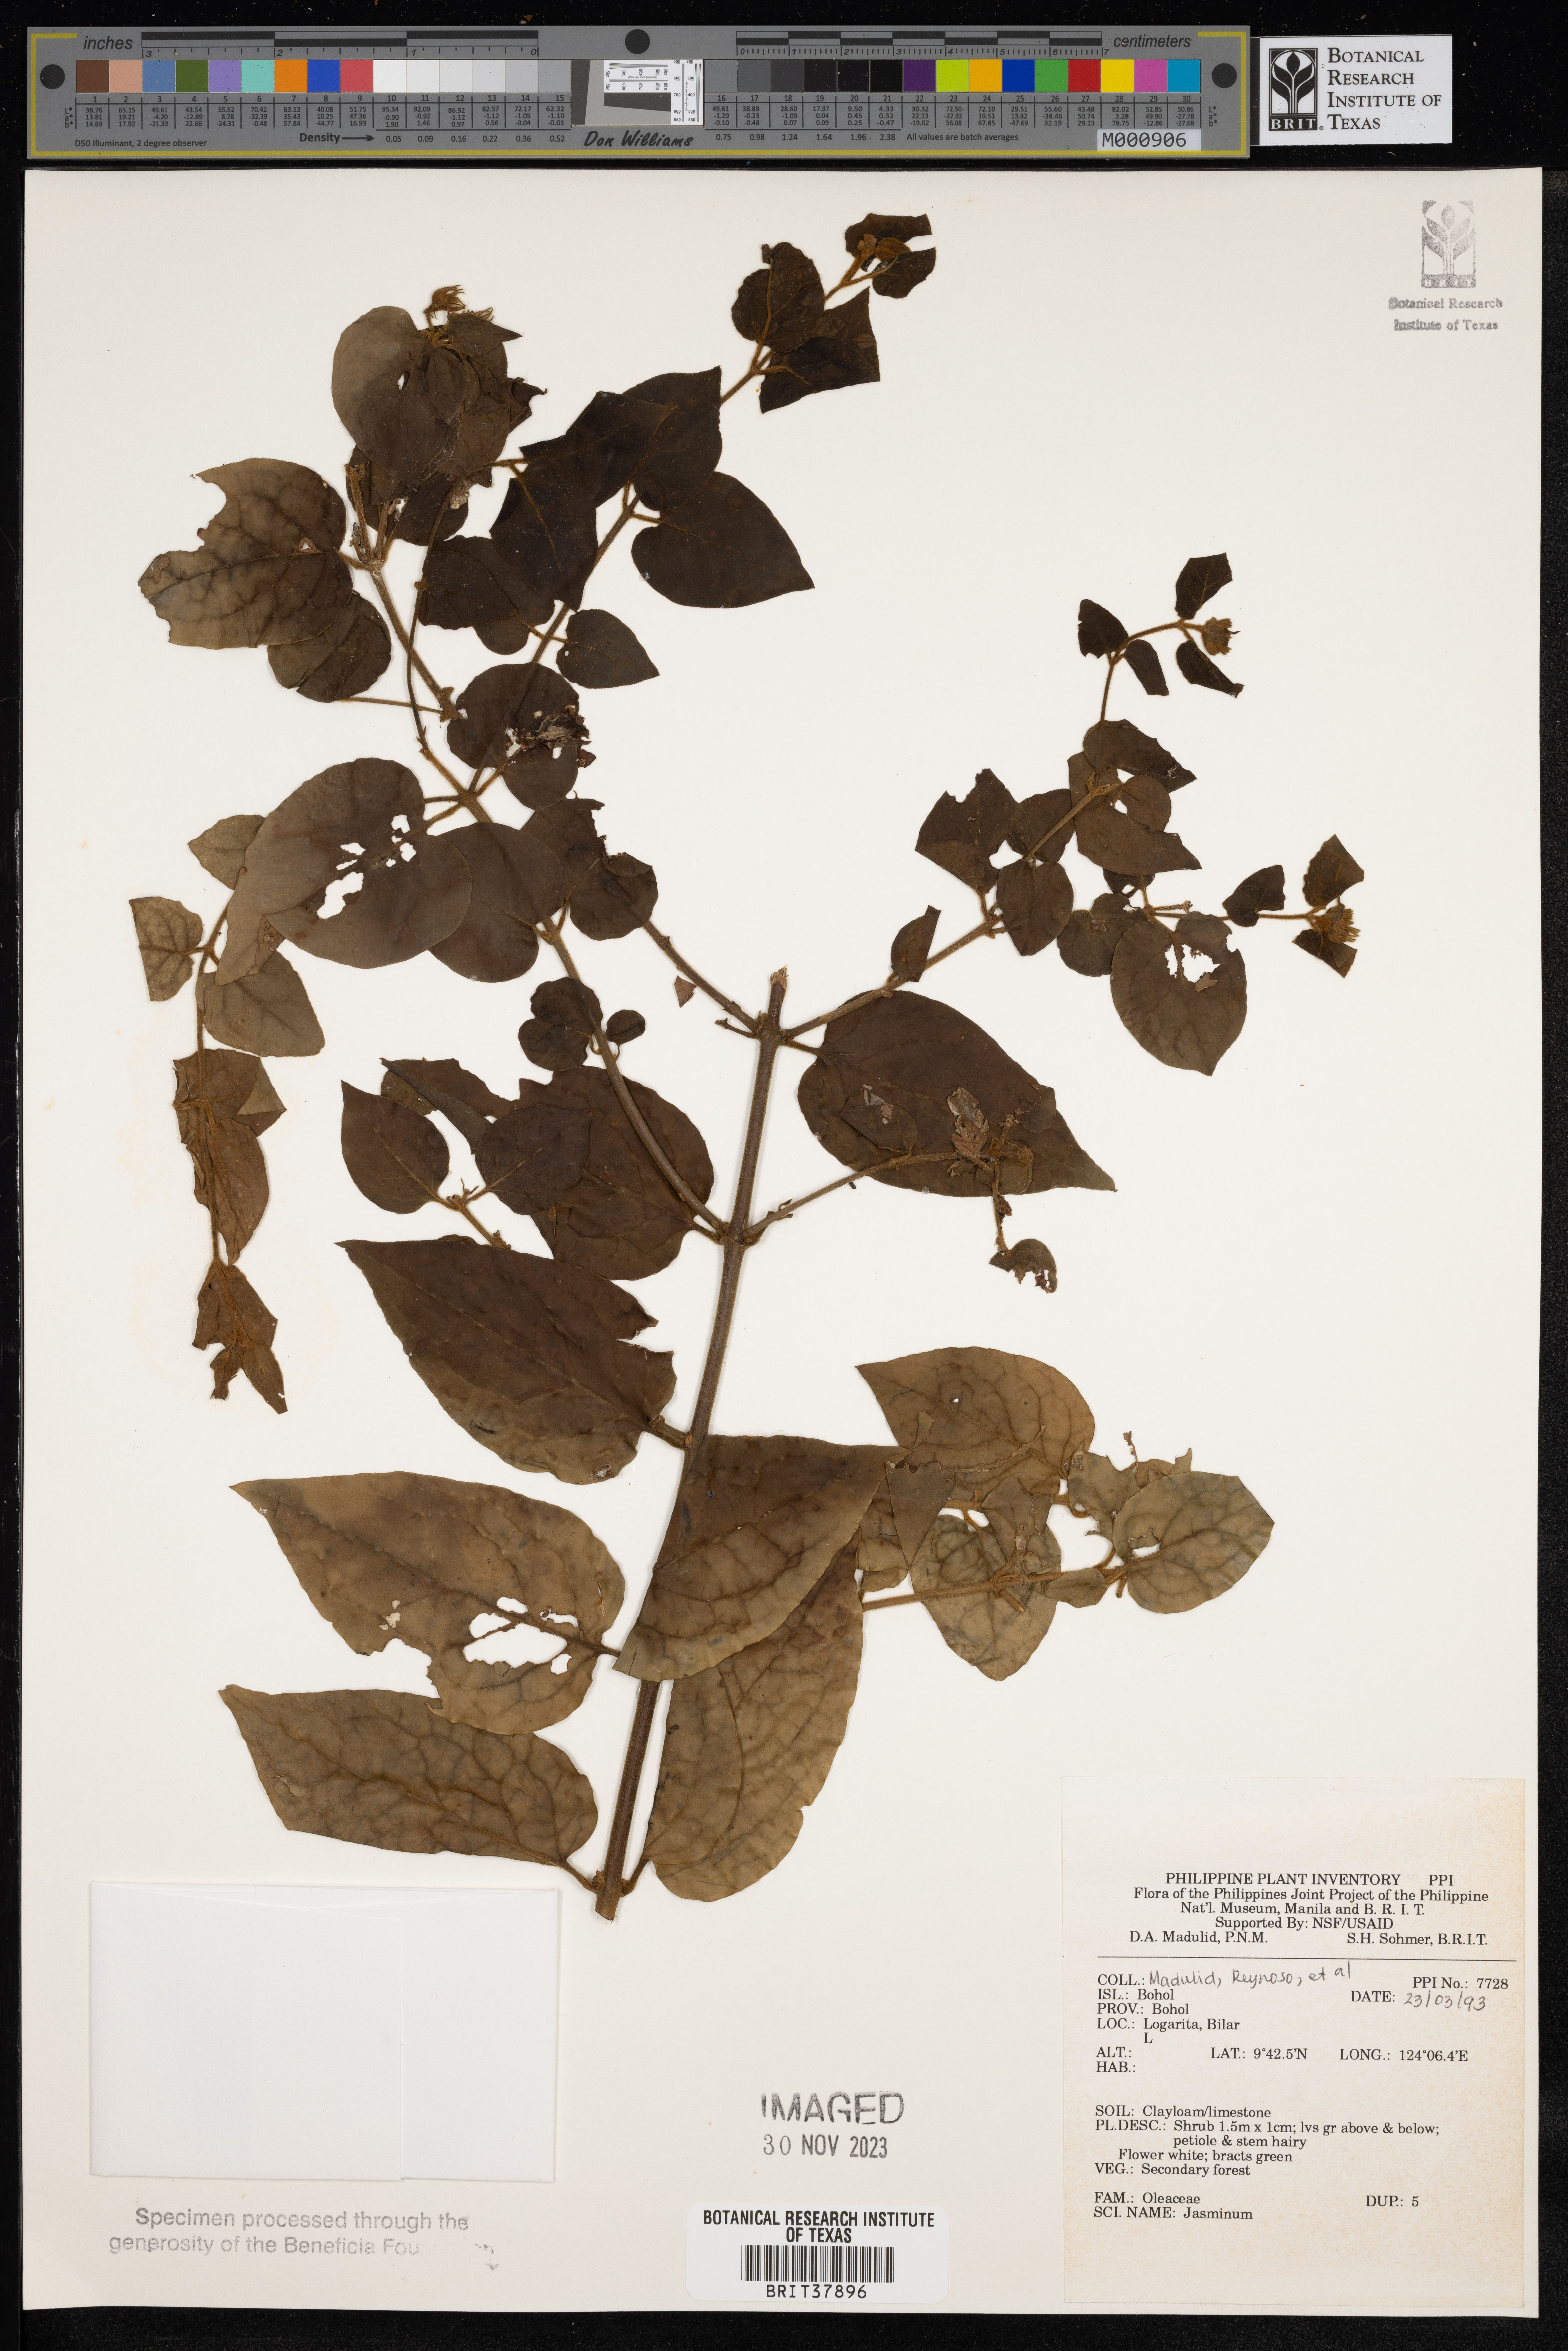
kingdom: Plantae
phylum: Tracheophyta
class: Magnoliopsida
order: Lamiales
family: Oleaceae
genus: Jasminum
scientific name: Jasminum
